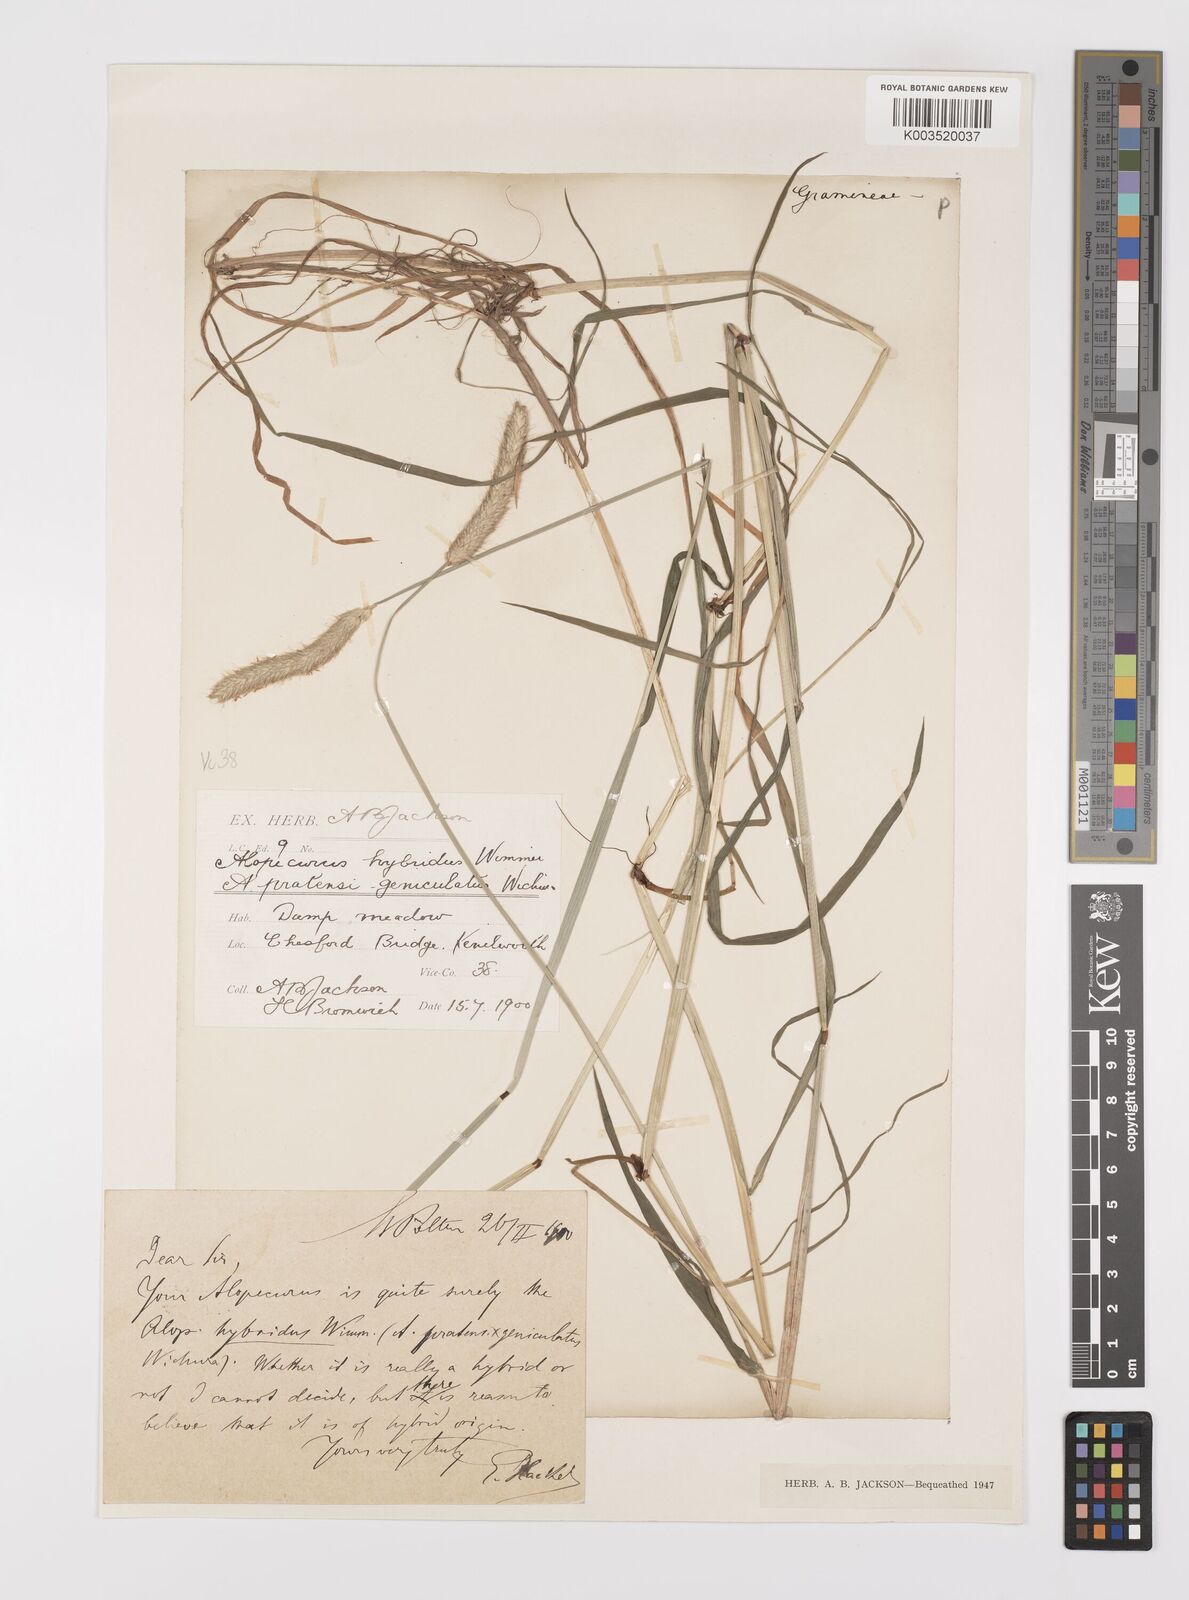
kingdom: Plantae
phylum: Tracheophyta
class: Liliopsida
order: Poales
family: Poaceae
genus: Alopecurus
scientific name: Alopecurus brachystylus
